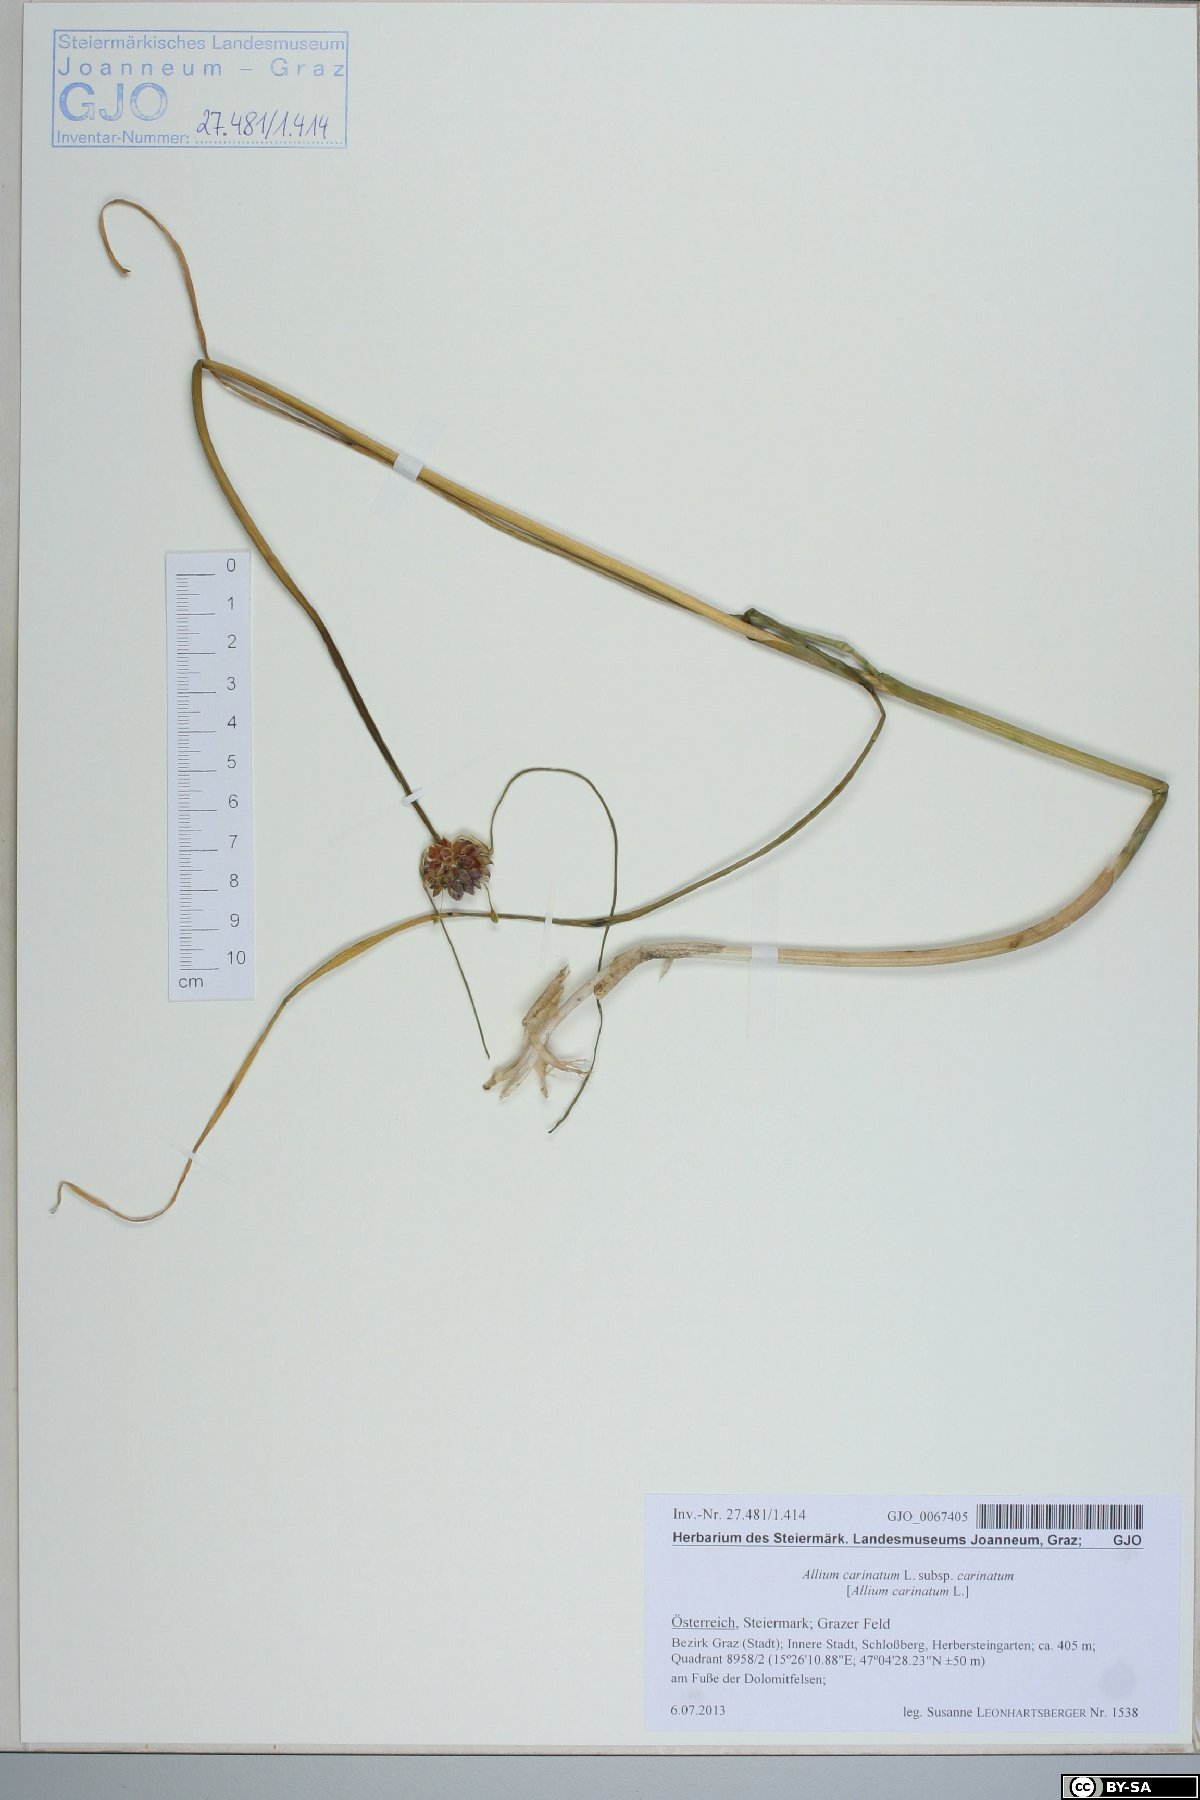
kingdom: Plantae
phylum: Tracheophyta
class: Liliopsida
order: Asparagales
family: Amaryllidaceae
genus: Allium
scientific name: Allium carinatum
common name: Keeled garlic
